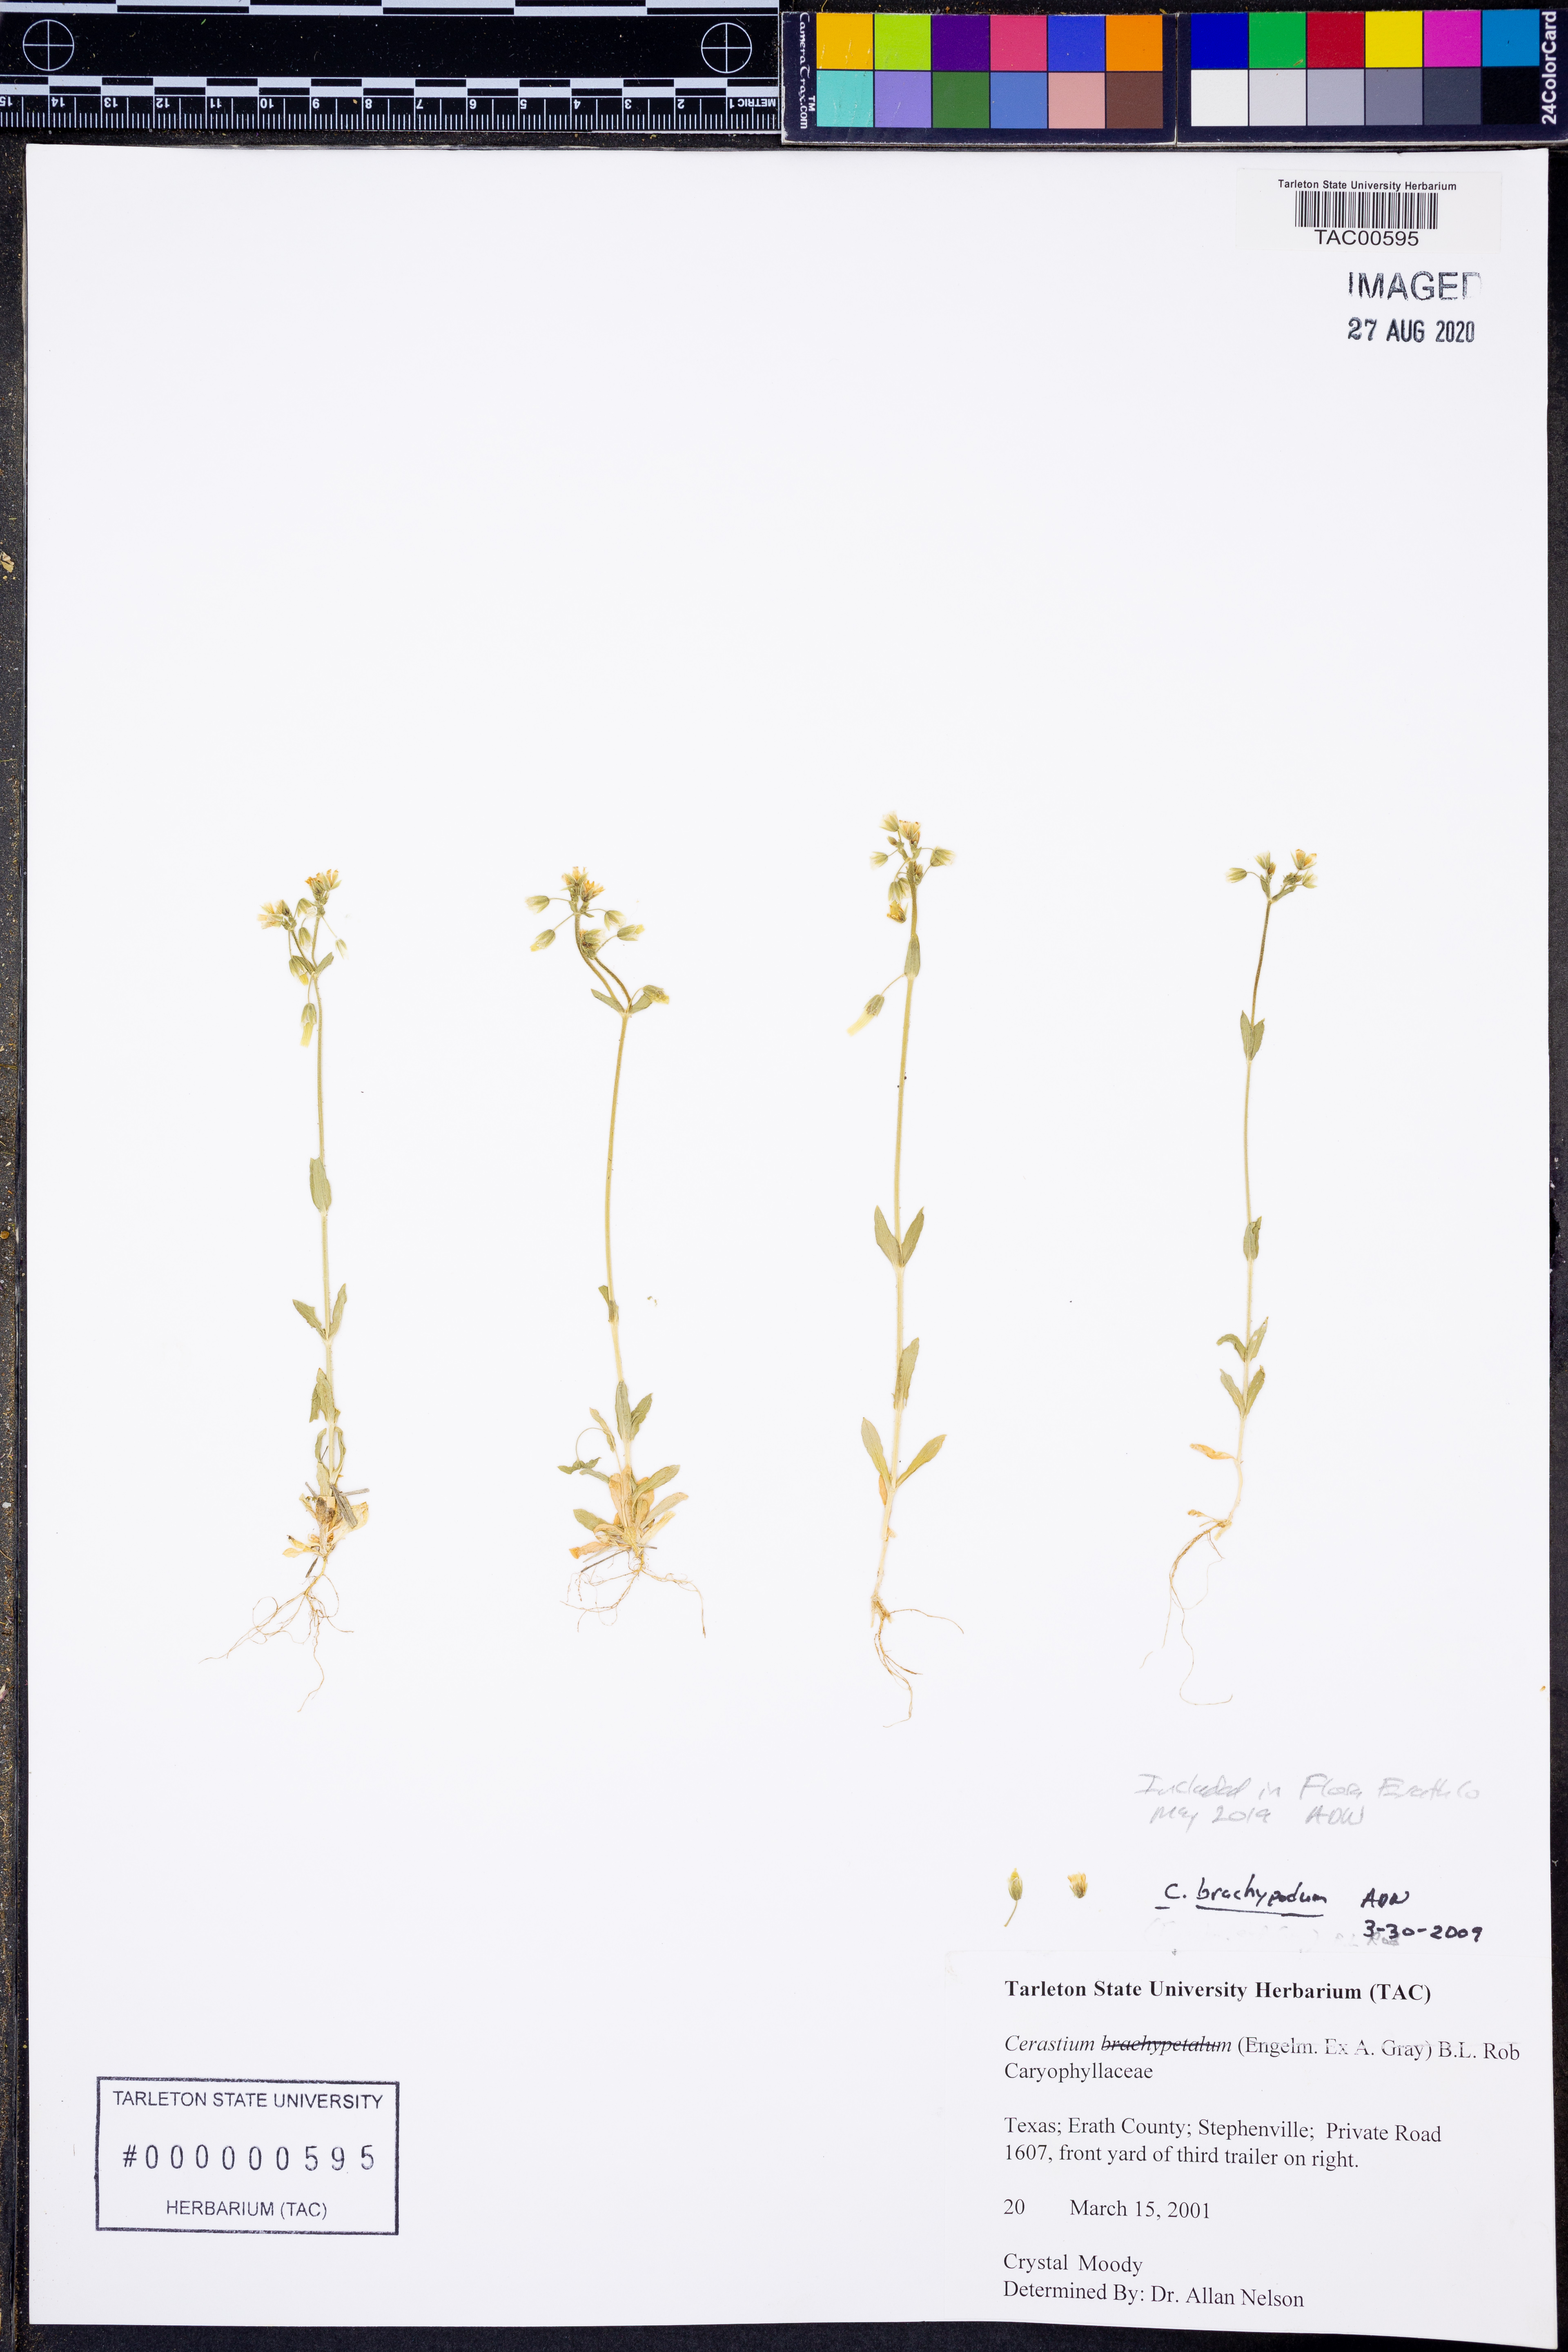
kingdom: Plantae
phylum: Tracheophyta
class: Magnoliopsida
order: Caryophyllales
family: Caryophyllaceae
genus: Cerastium
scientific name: Cerastium brachypodum
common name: Short-pedicelled nodding chickweed
